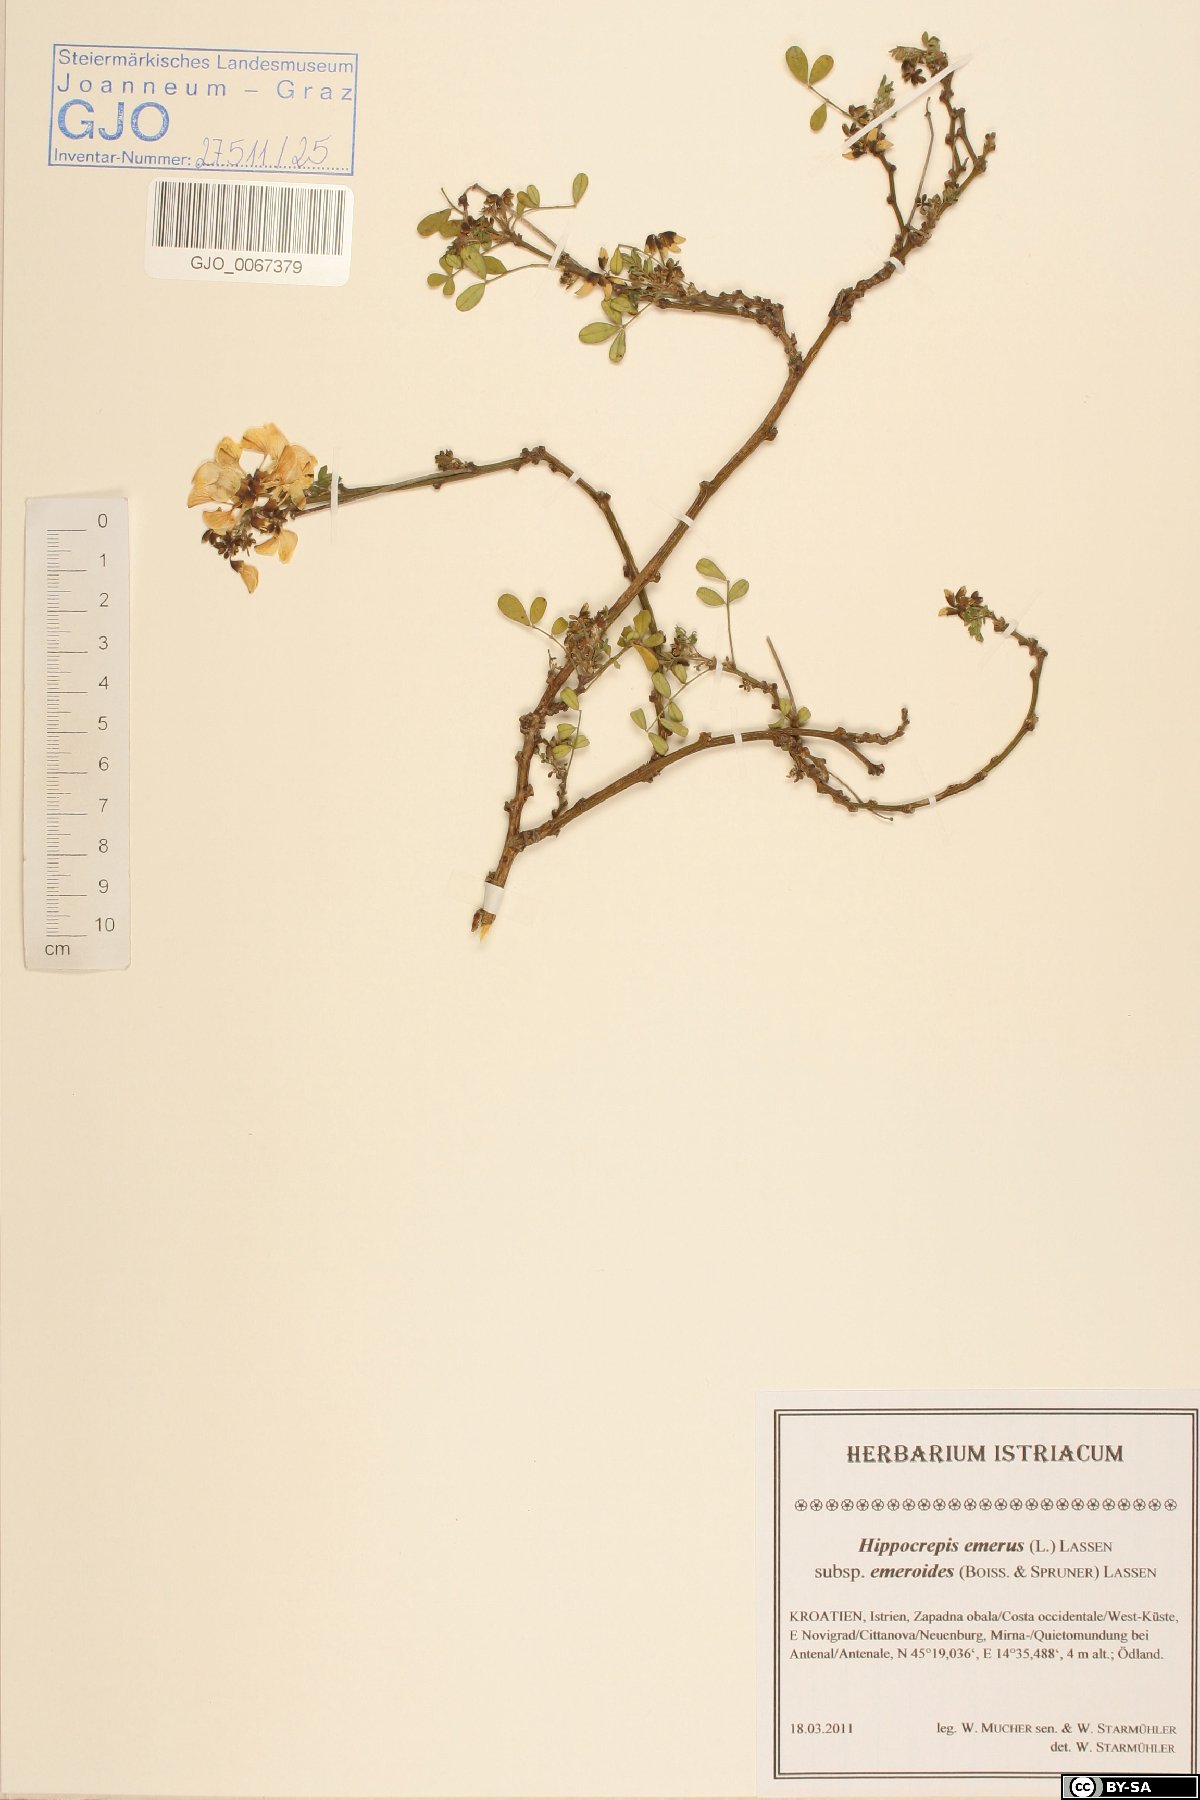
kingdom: Plantae
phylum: Tracheophyta
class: Magnoliopsida
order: Fabales
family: Fabaceae
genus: Hippocrepis
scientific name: Hippocrepis emerus
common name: Scorpion senna
